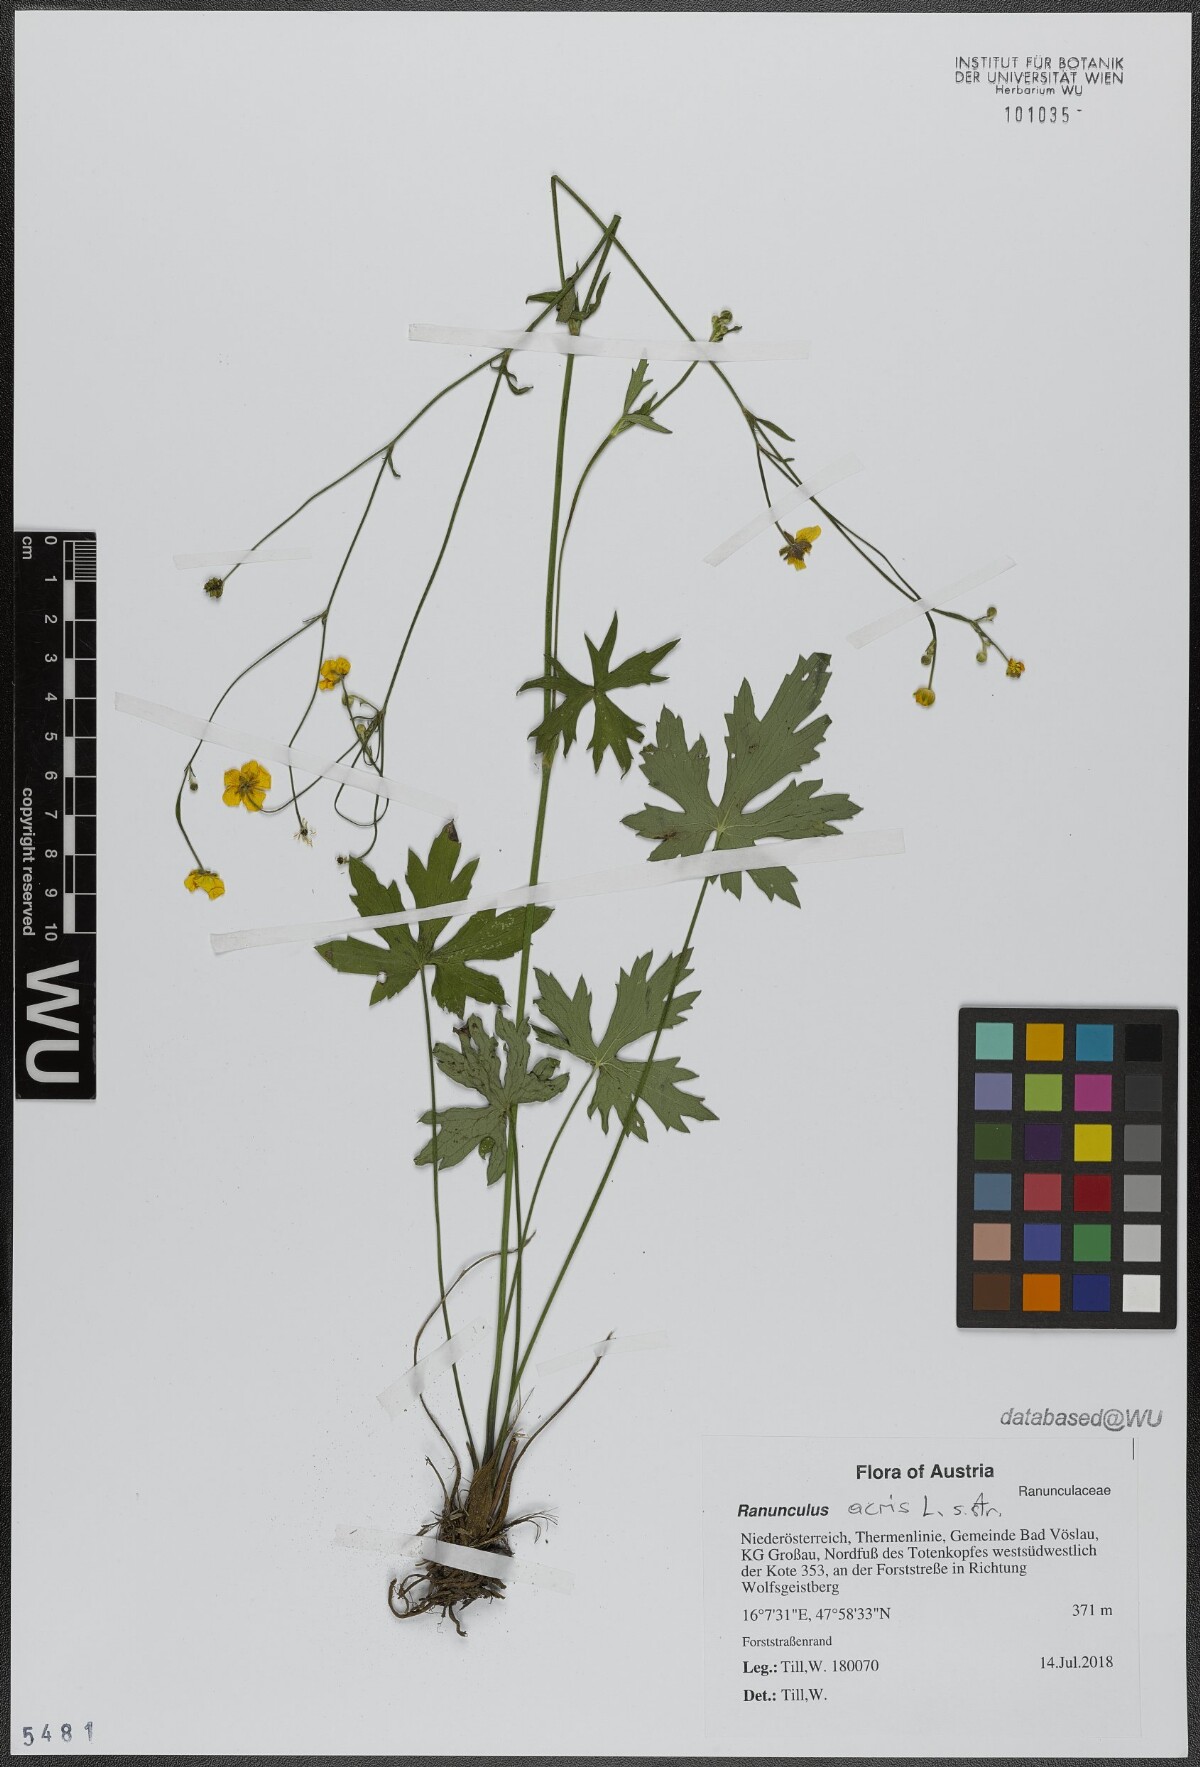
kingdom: Plantae
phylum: Tracheophyta
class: Magnoliopsida
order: Ranunculales
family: Ranunculaceae
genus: Ranunculus
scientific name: Ranunculus acris
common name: Meadow buttercup
